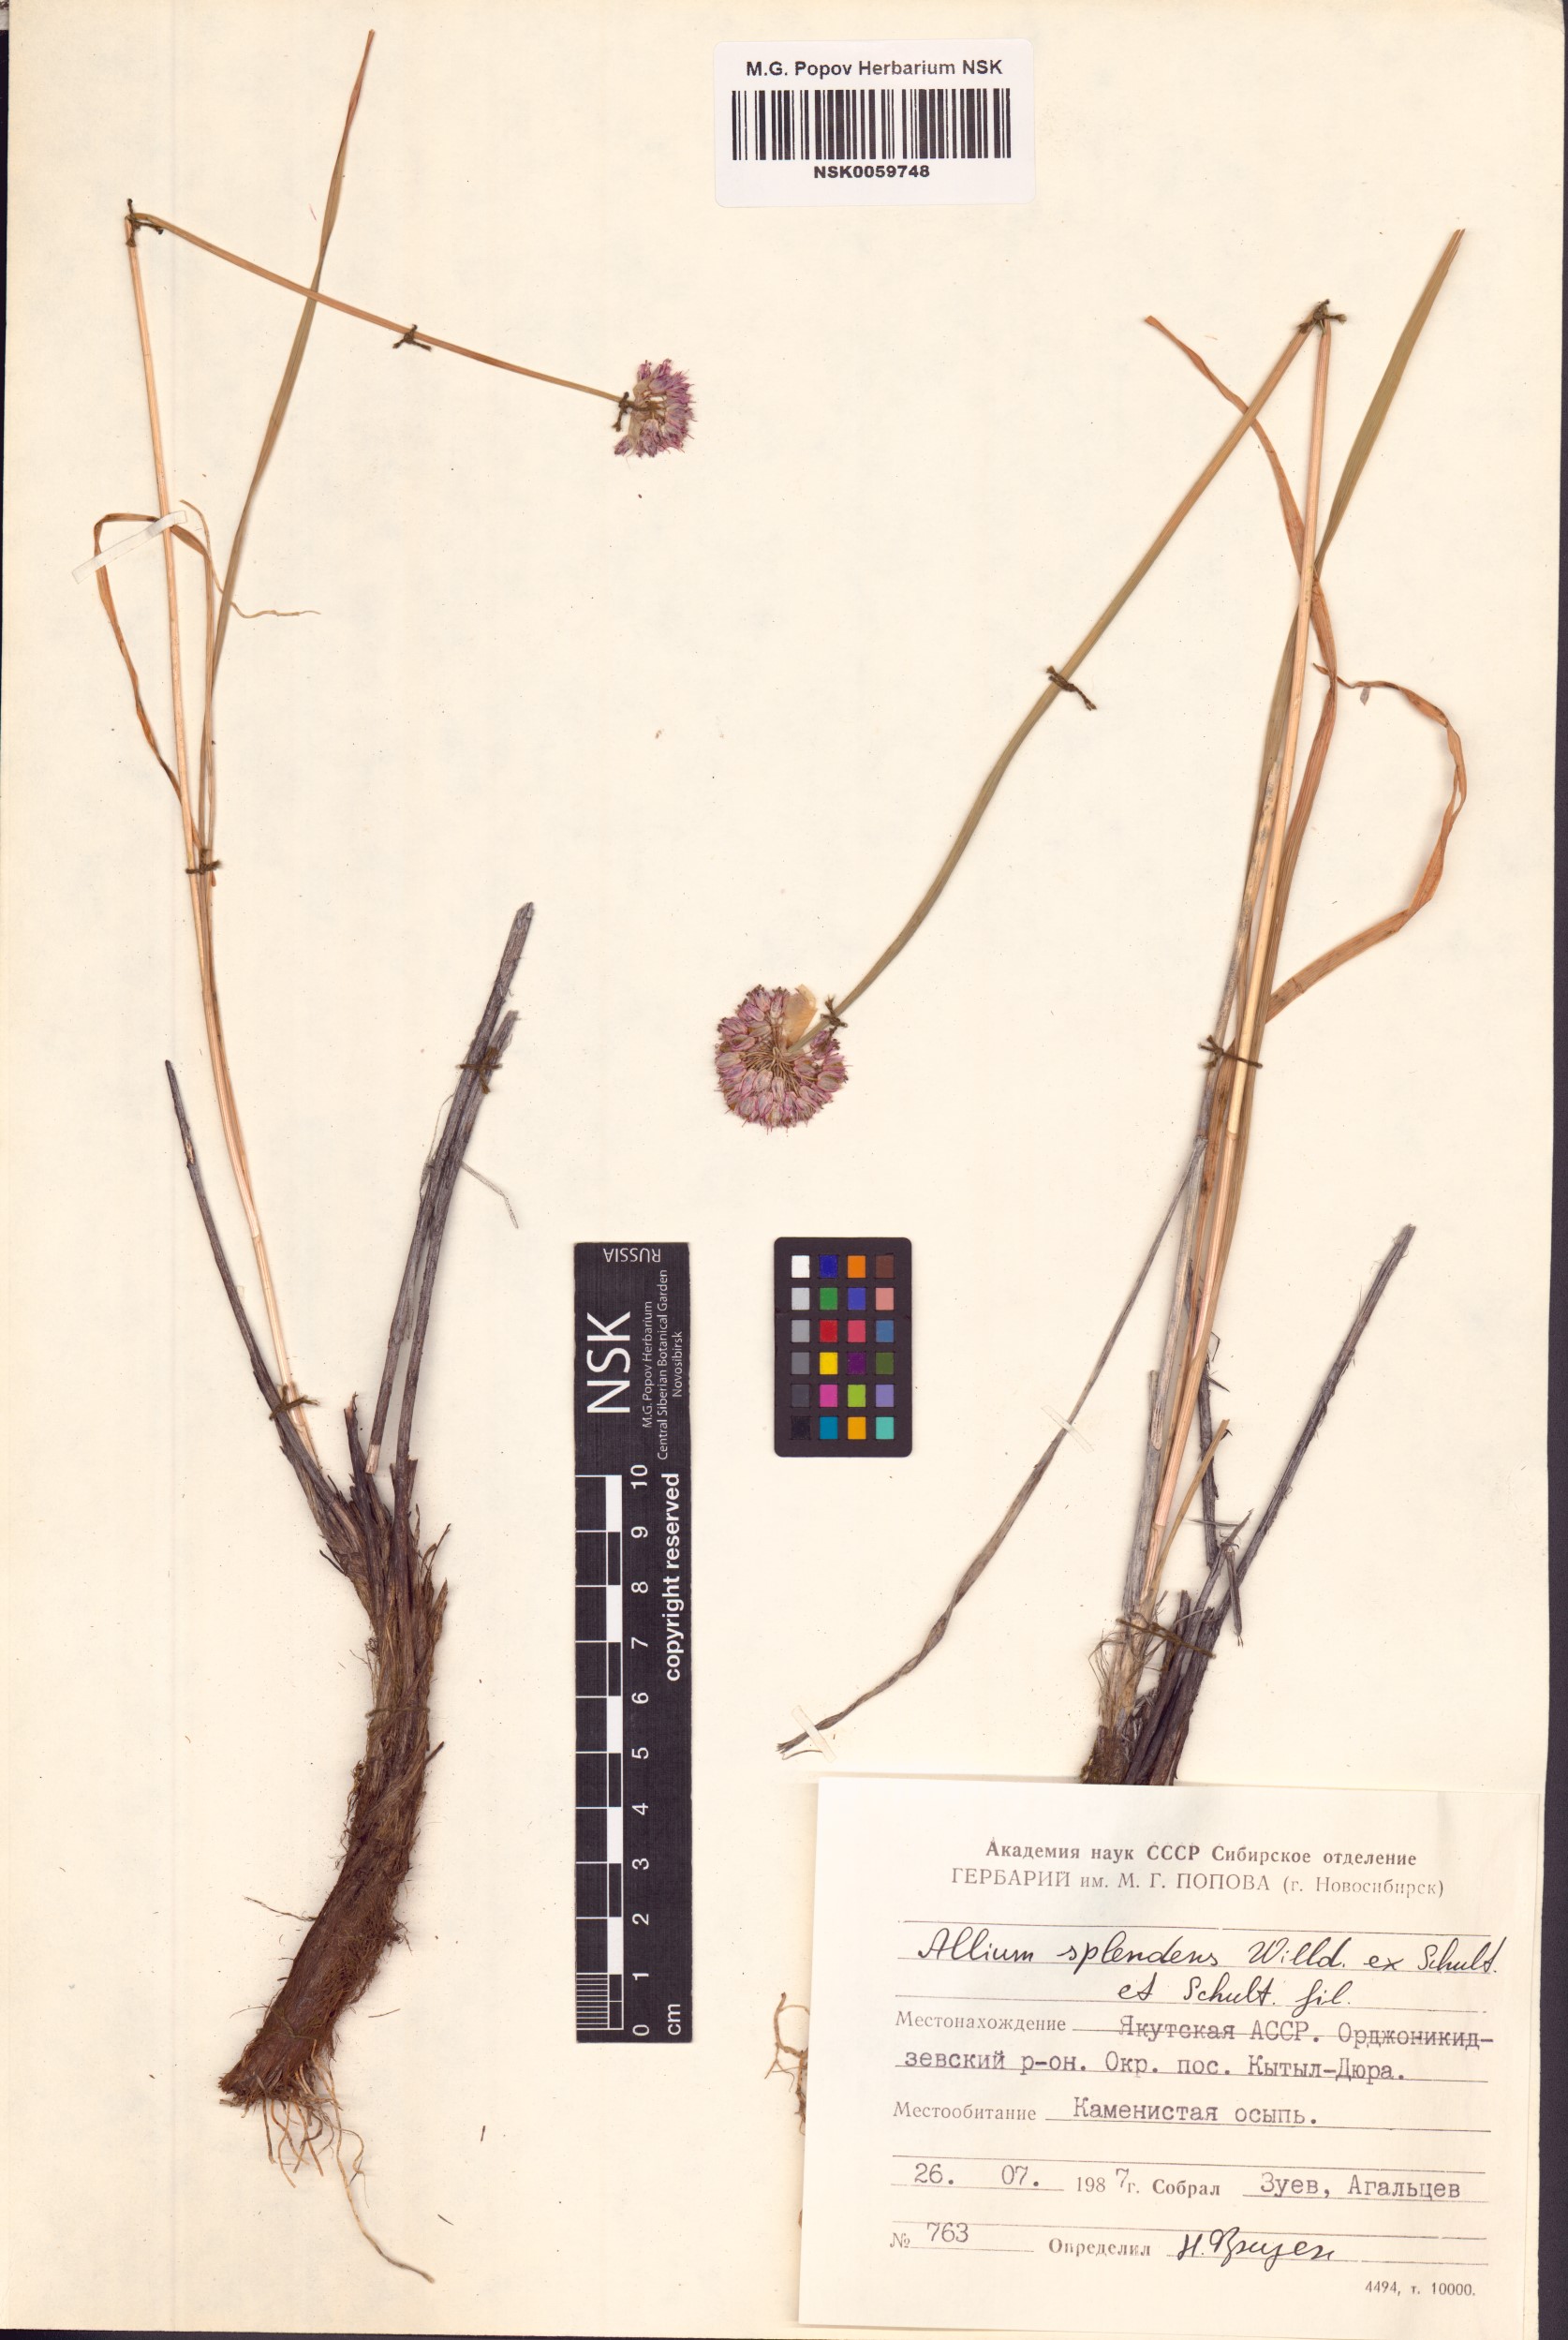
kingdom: Plantae
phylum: Tracheophyta
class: Liliopsida
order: Asparagales
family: Amaryllidaceae
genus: Allium
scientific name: Allium splendens
